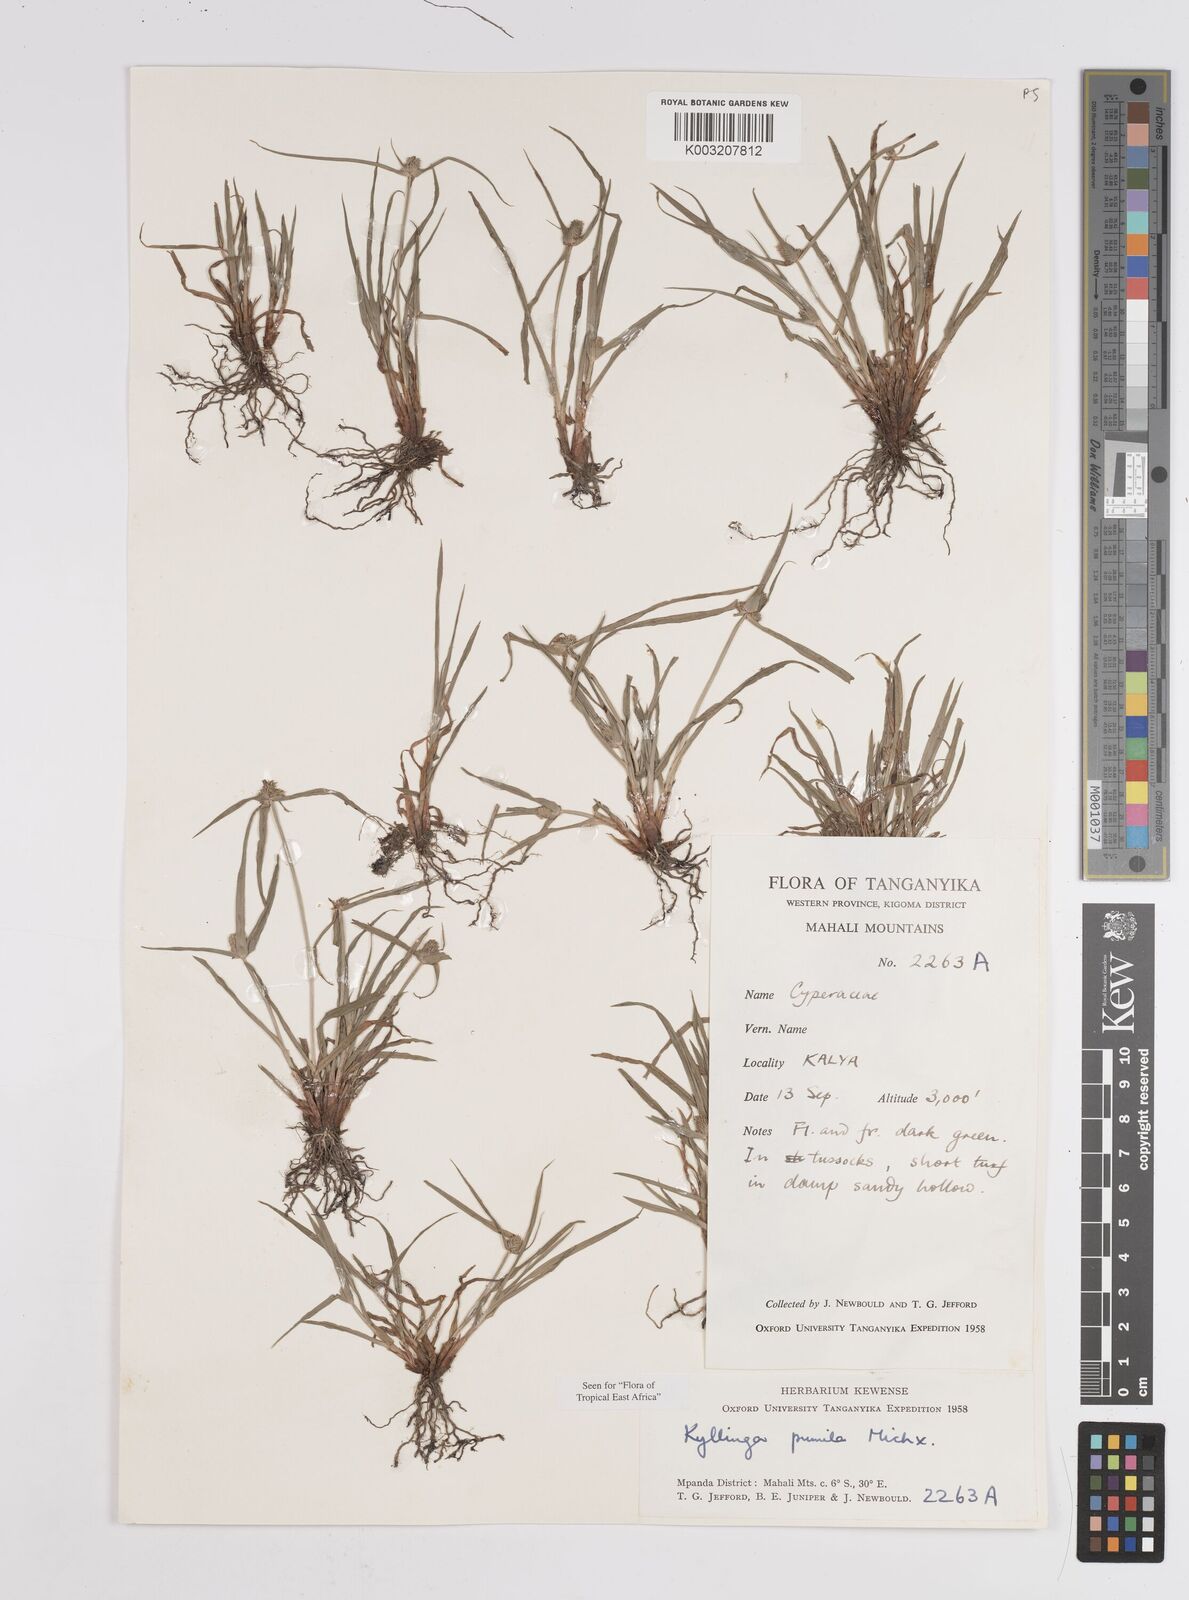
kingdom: Plantae
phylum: Tracheophyta
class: Liliopsida
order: Poales
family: Cyperaceae
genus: Cyperus
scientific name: Cyperus hortensis
